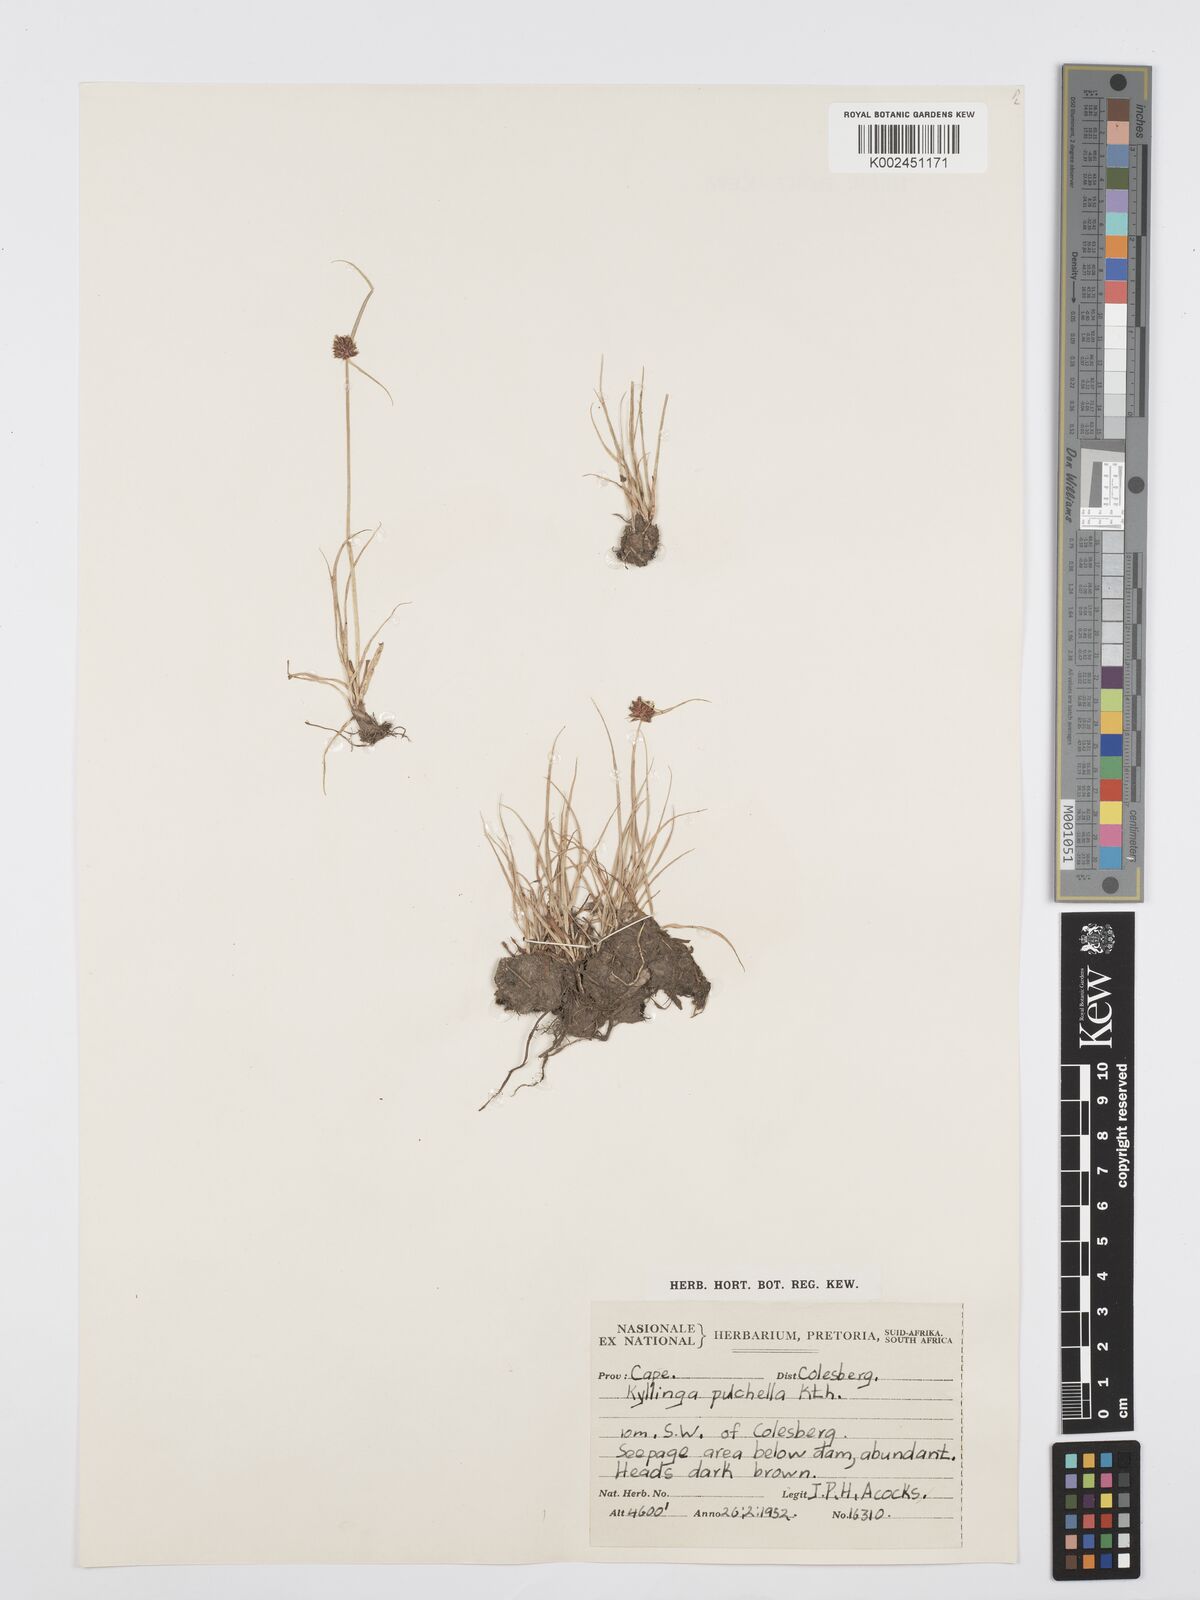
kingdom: Plantae
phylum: Tracheophyta
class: Liliopsida
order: Poales
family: Cyperaceae
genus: Cyperus
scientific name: Cyperus
